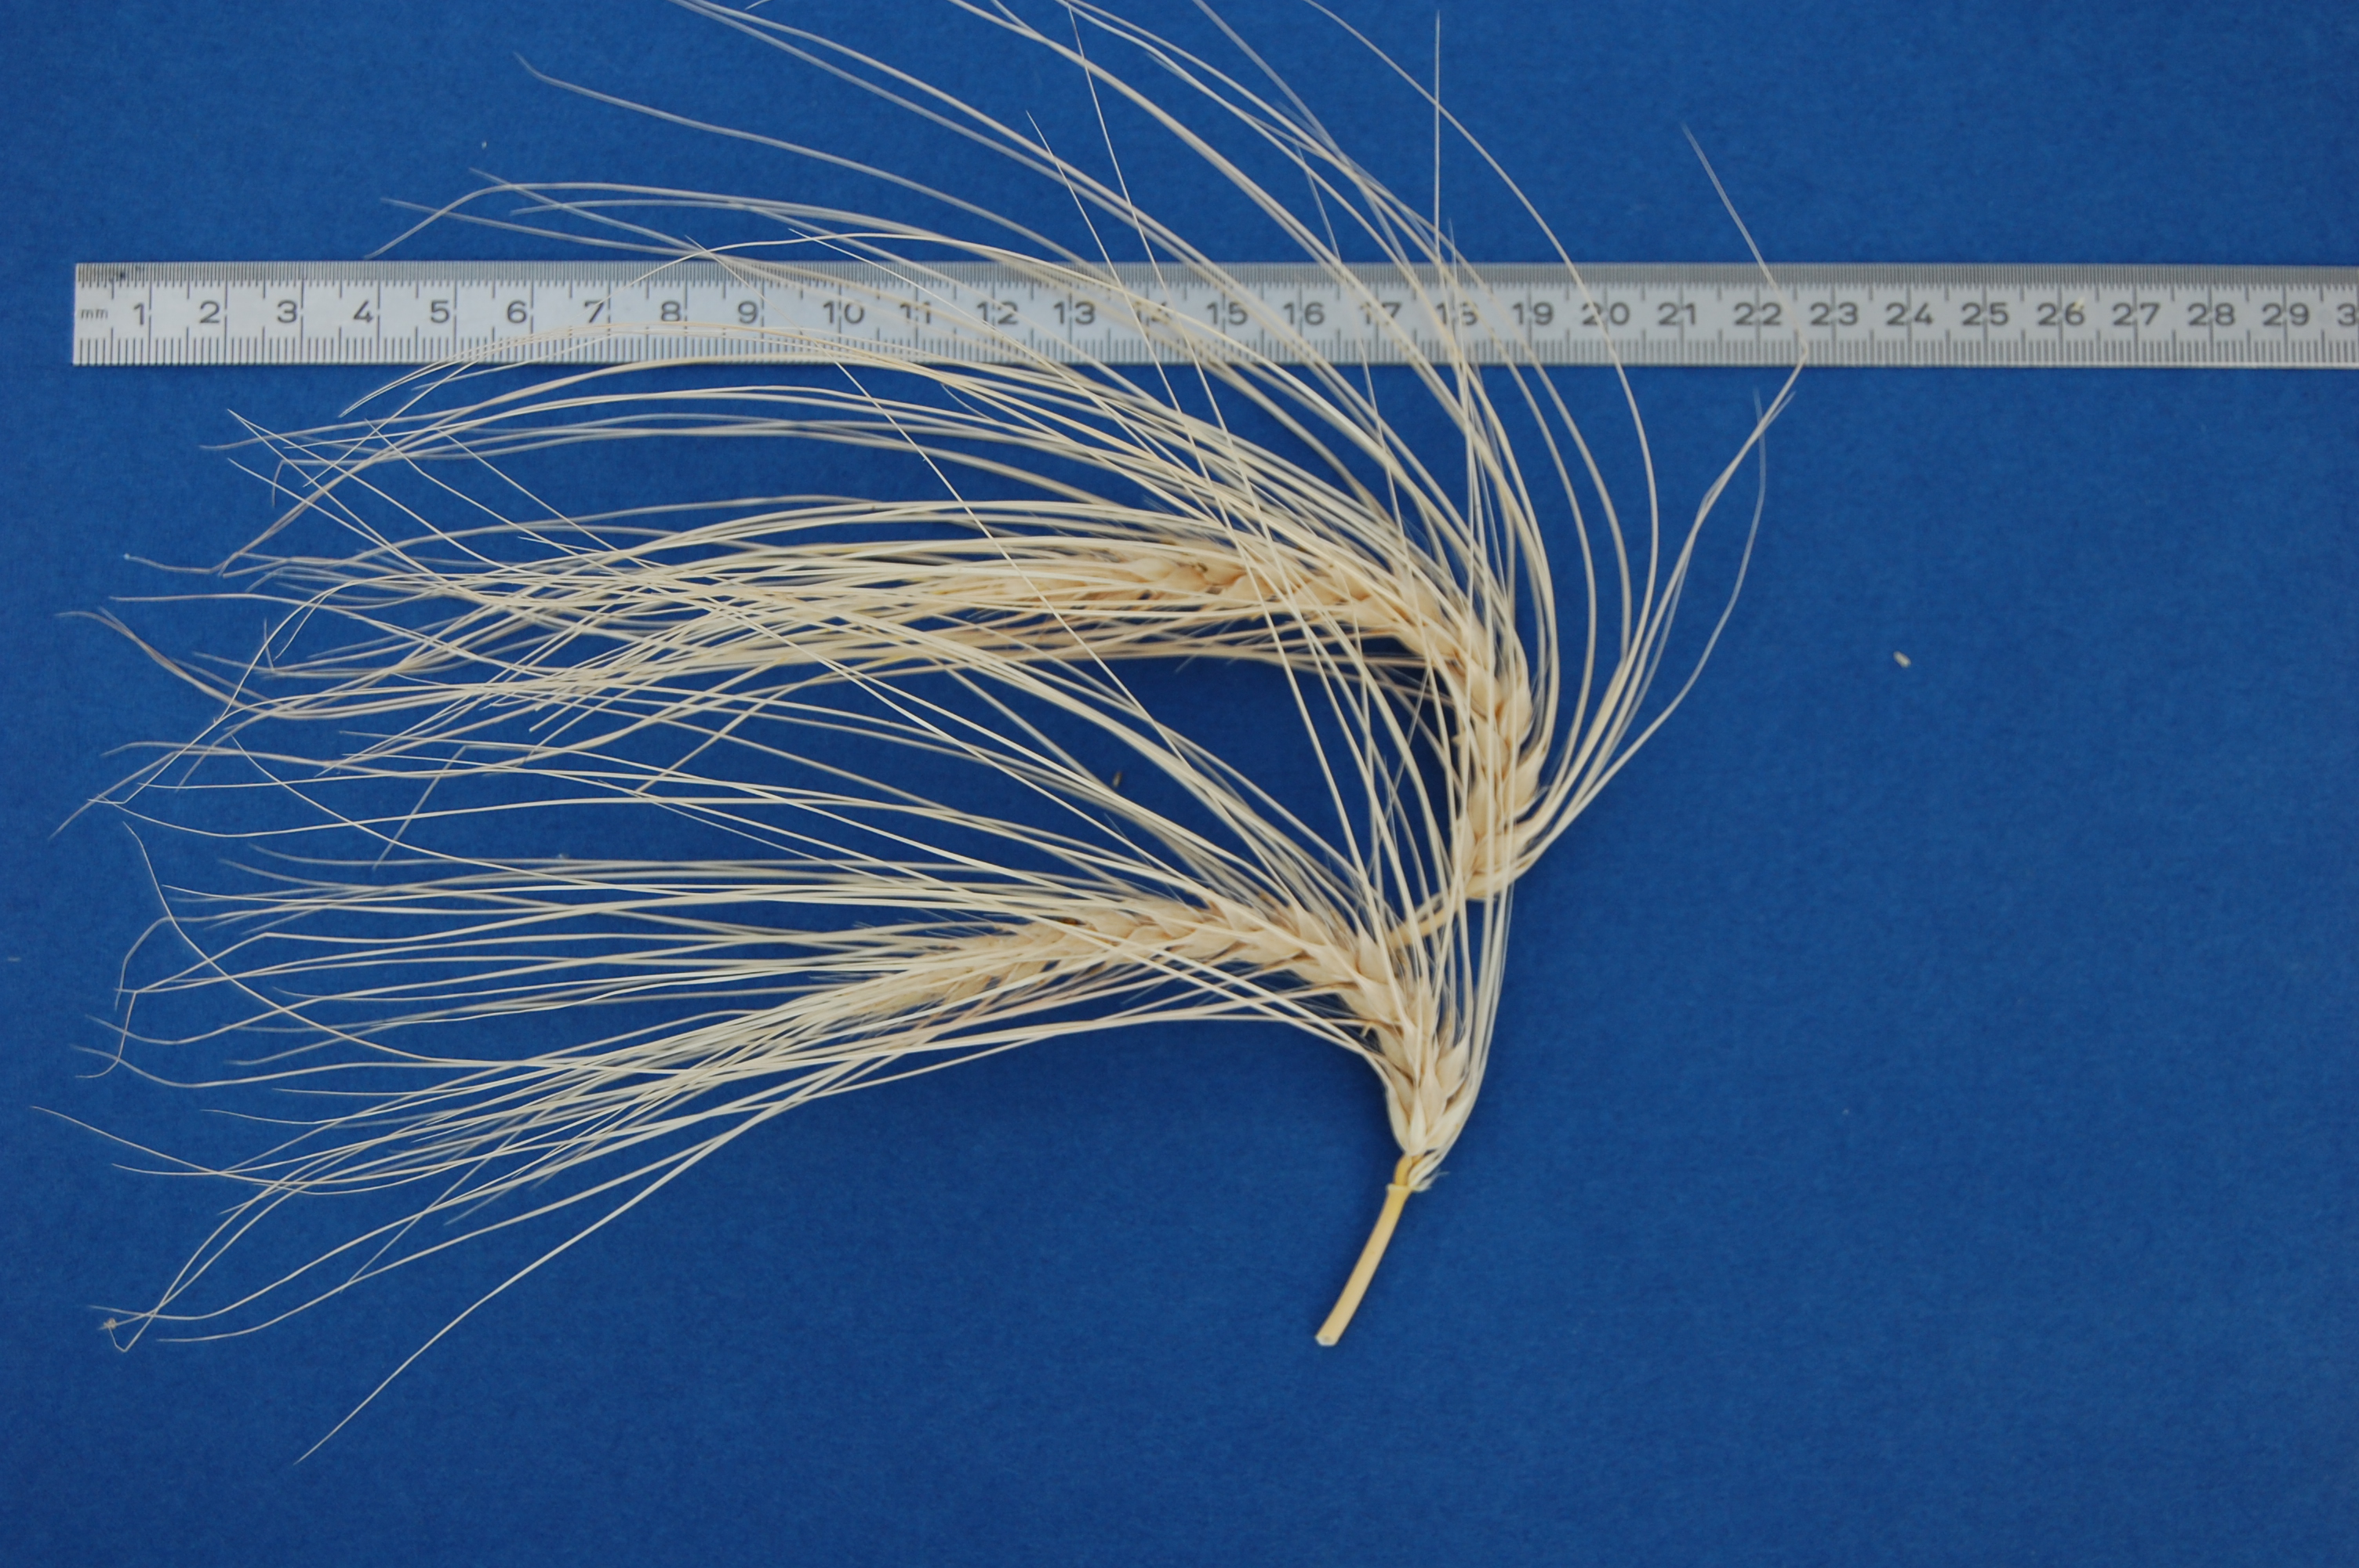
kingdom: Plantae
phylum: Tracheophyta
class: Liliopsida
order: Poales
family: Poaceae
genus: Hordeum
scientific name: Hordeum vulgare
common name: Common barley
